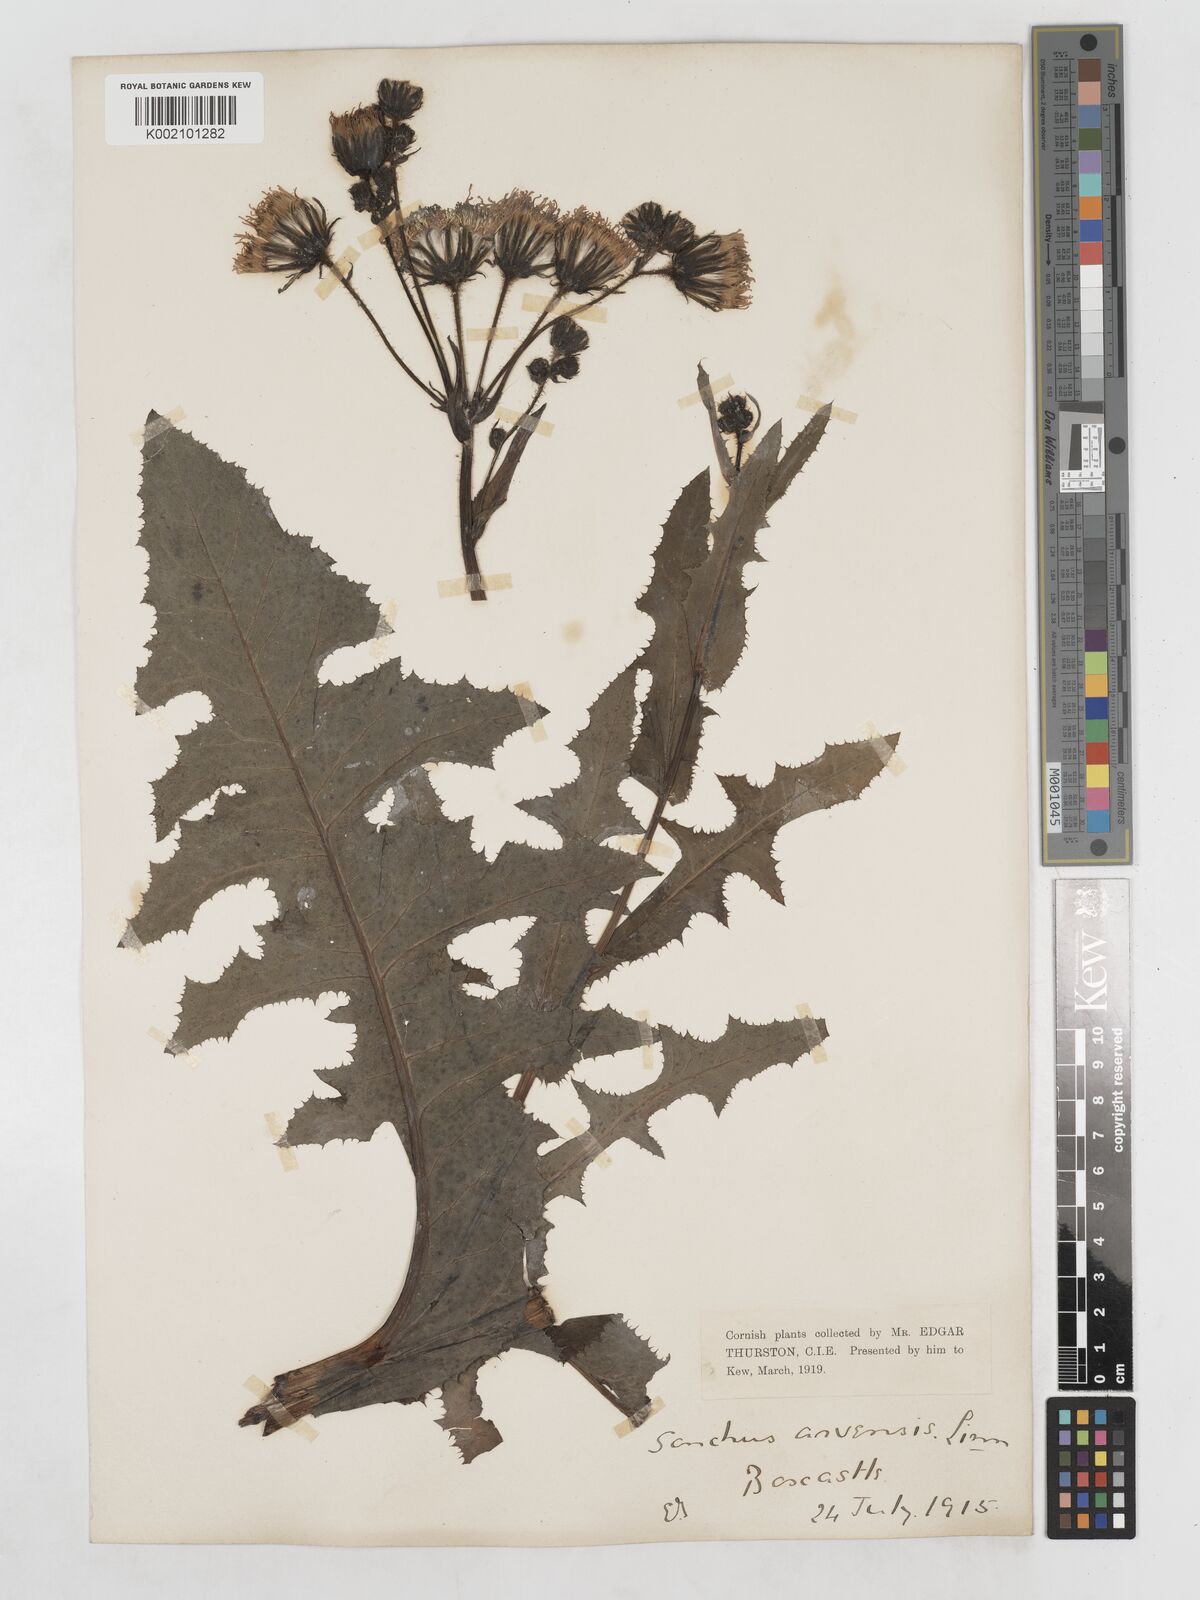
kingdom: Plantae
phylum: Tracheophyta
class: Magnoliopsida
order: Asterales
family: Asteraceae
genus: Sonchus
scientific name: Sonchus arvensis
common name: Perennial sow-thistle
